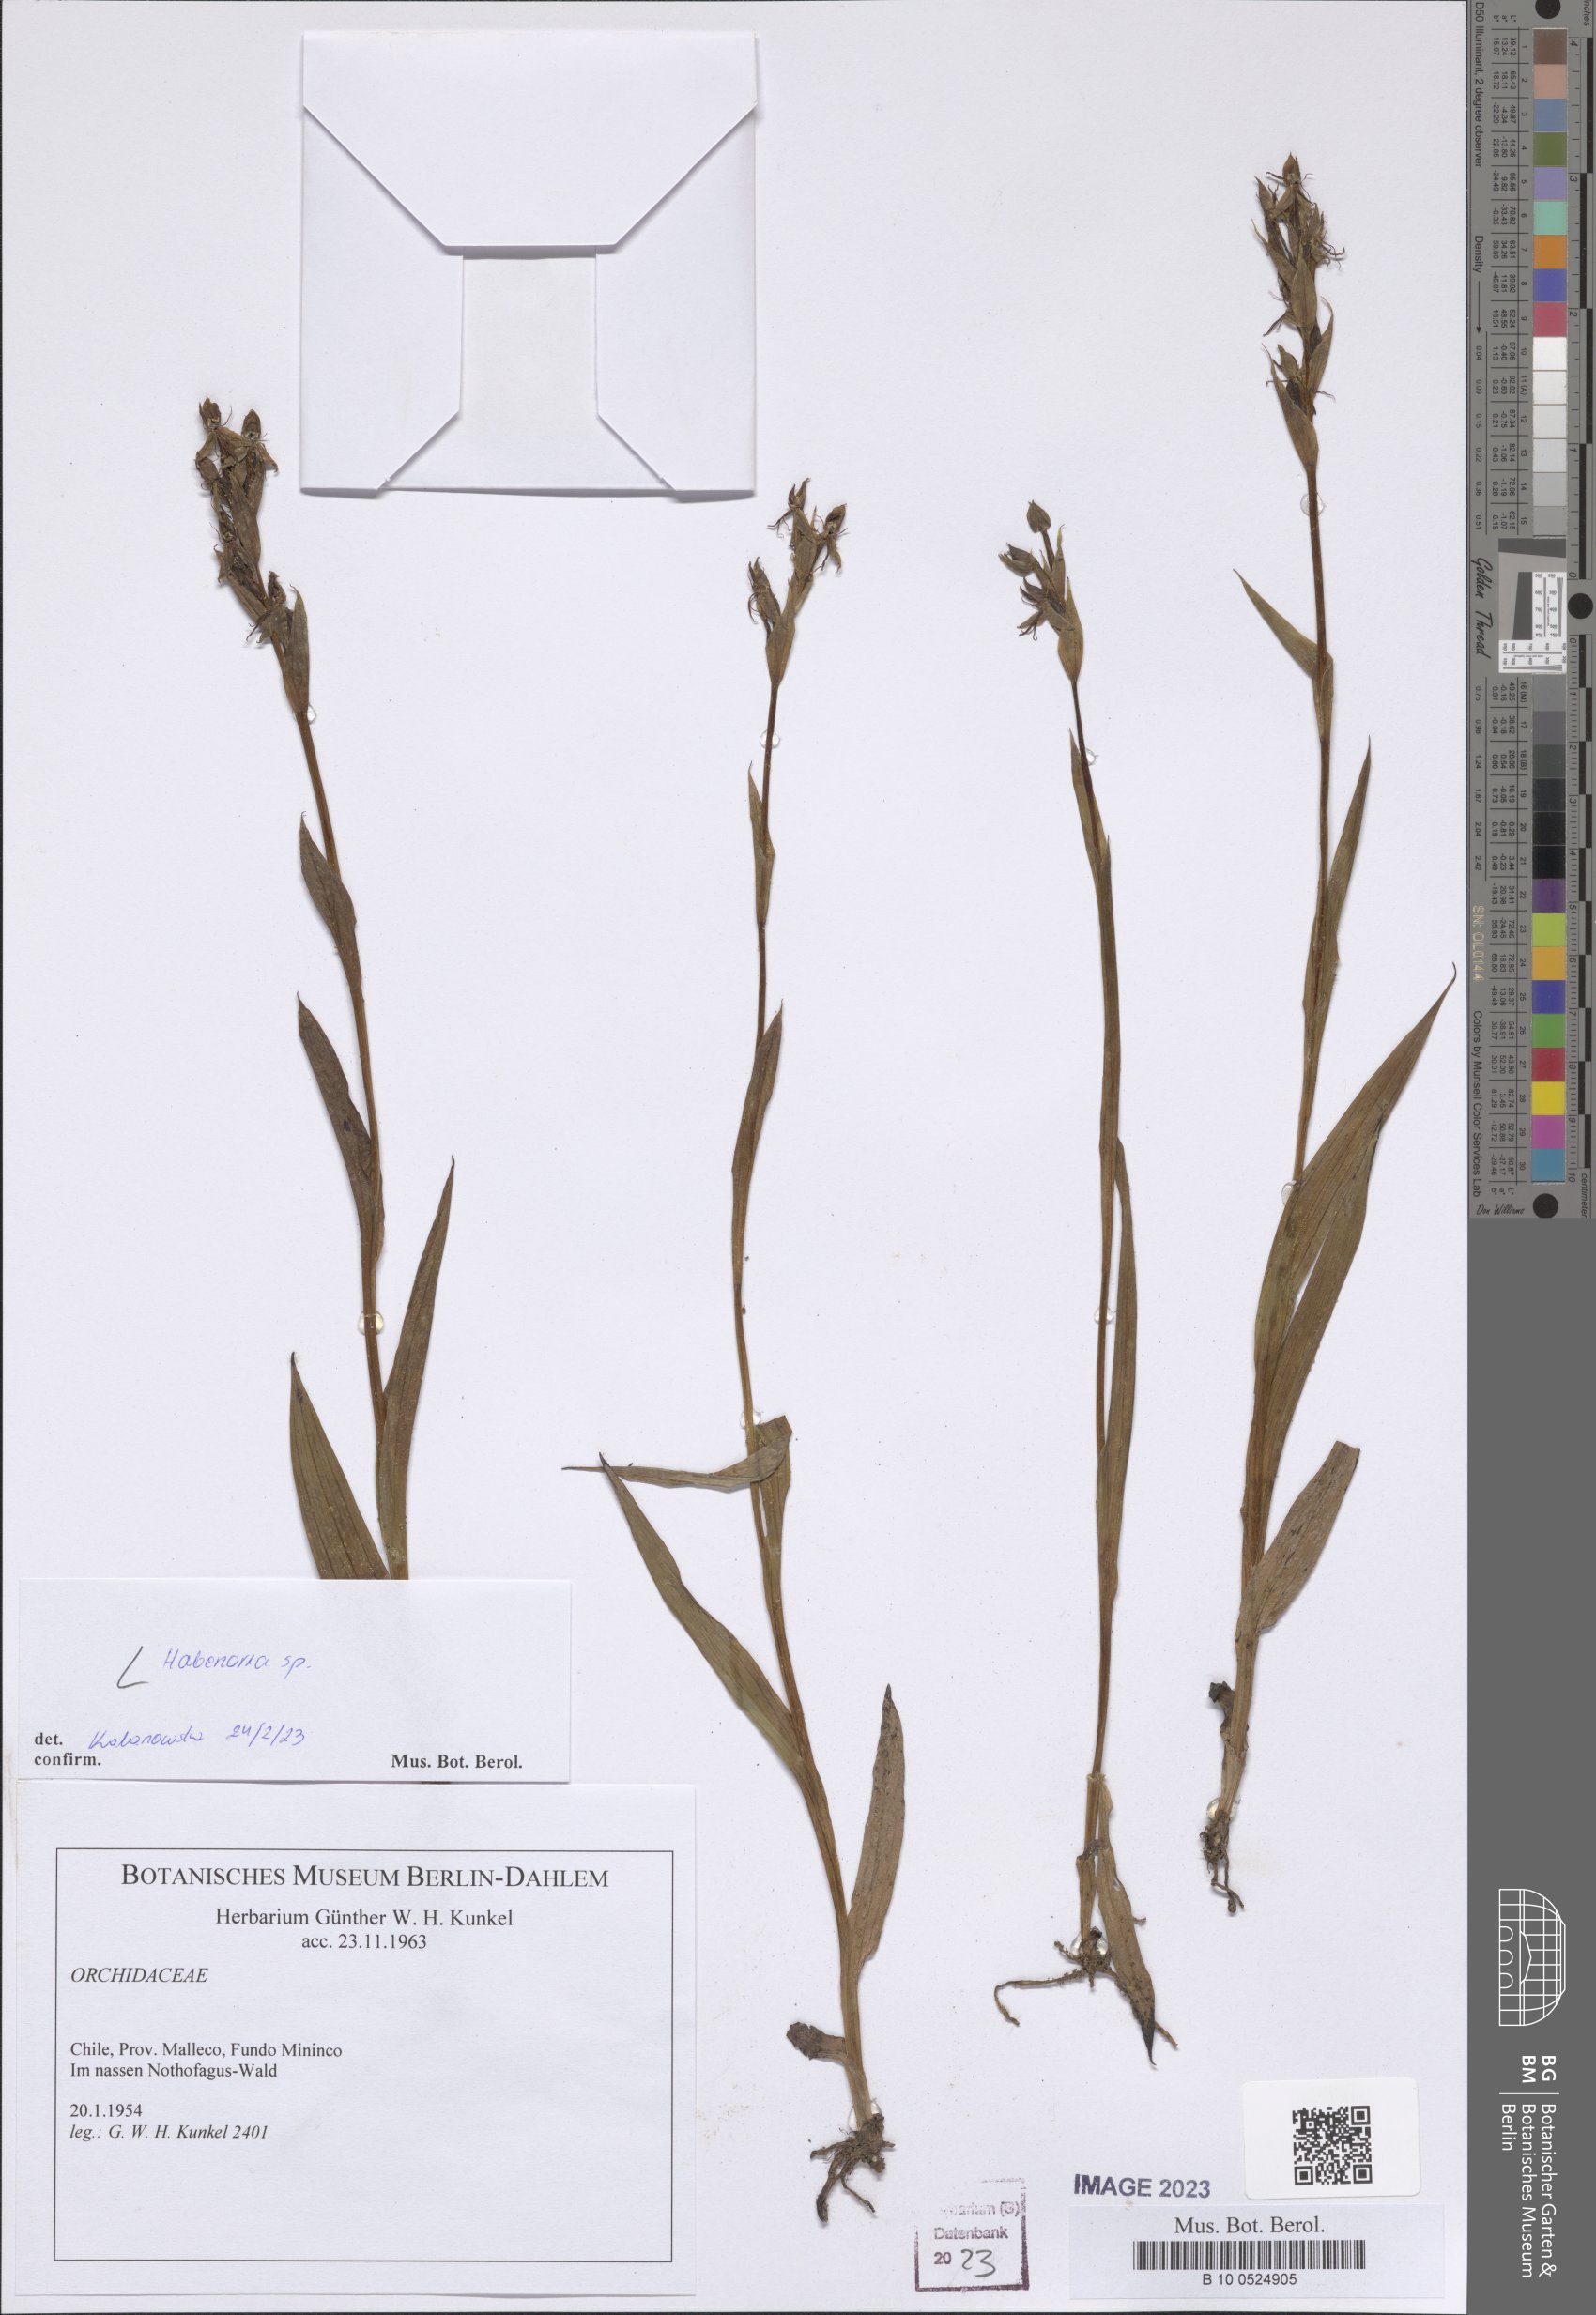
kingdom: Plantae
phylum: Tracheophyta
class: Liliopsida
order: Asparagales
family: Orchidaceae
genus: Habenaria
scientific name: Habenaria
